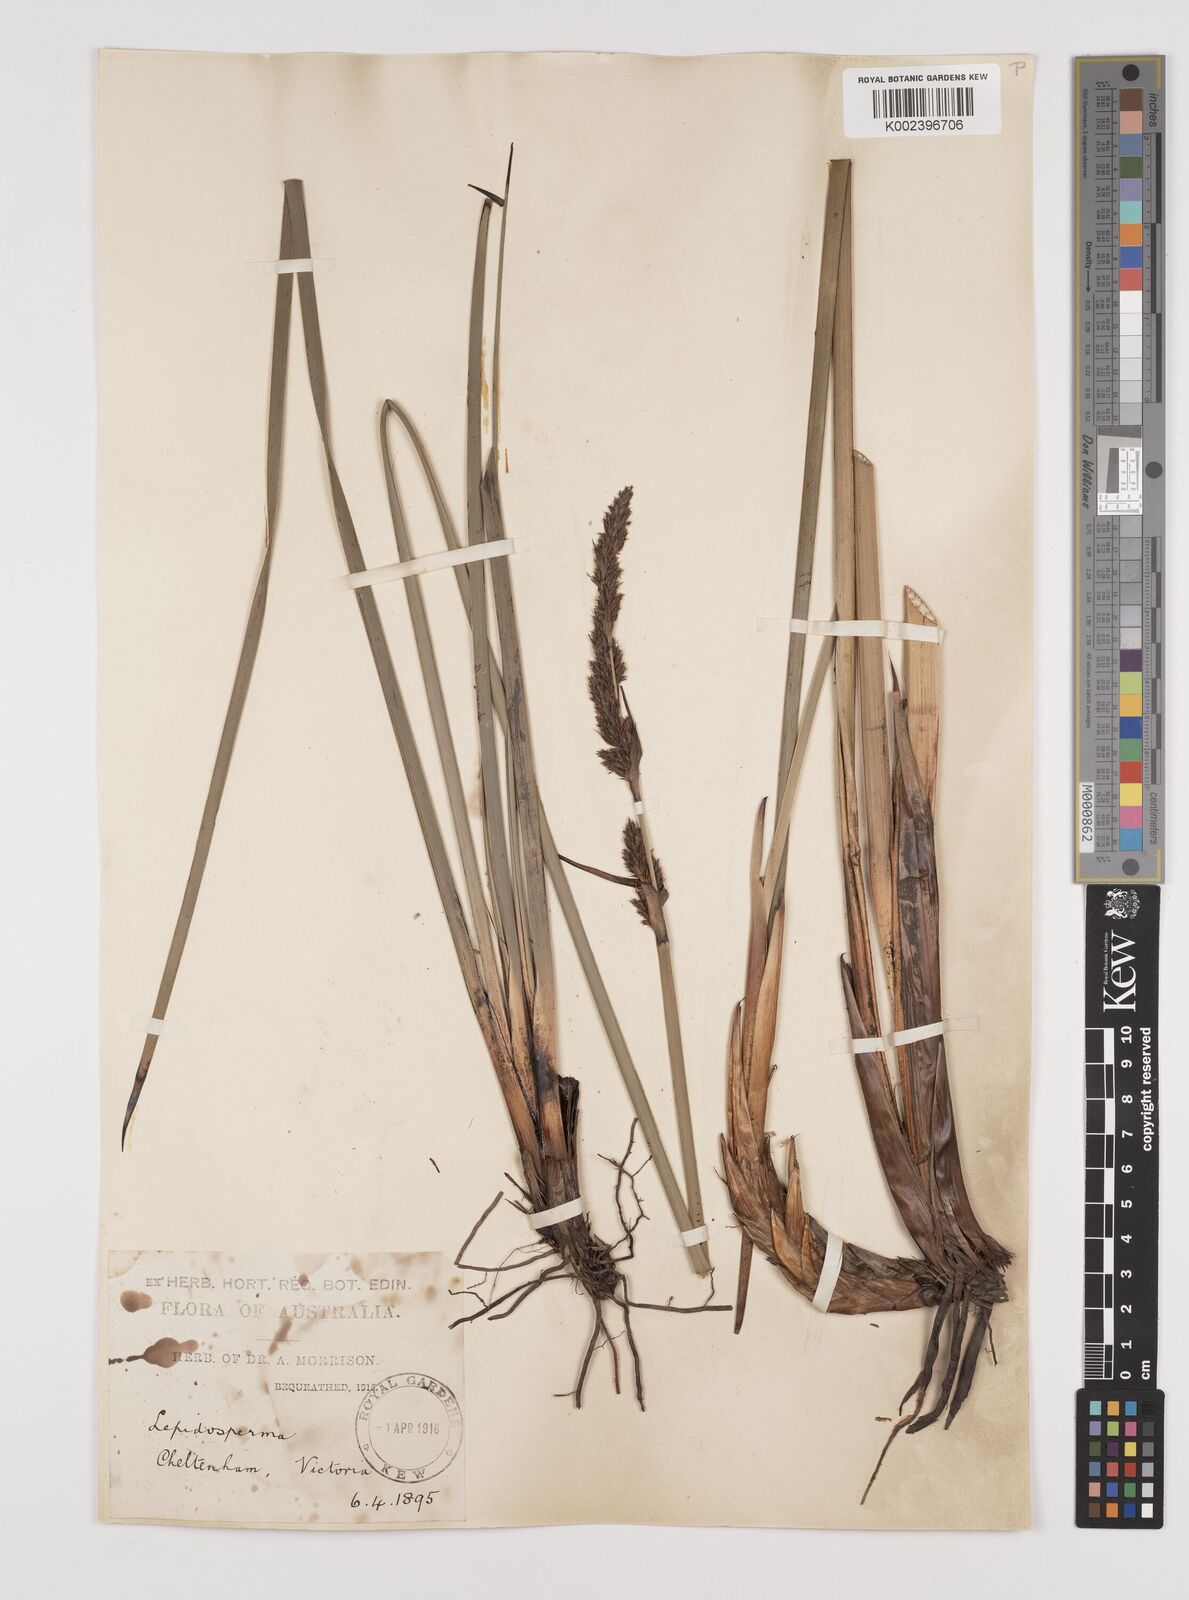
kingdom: Plantae
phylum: Tracheophyta
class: Liliopsida
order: Poales
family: Cyperaceae
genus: Lepidosperma
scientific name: Lepidosperma longitudinale
